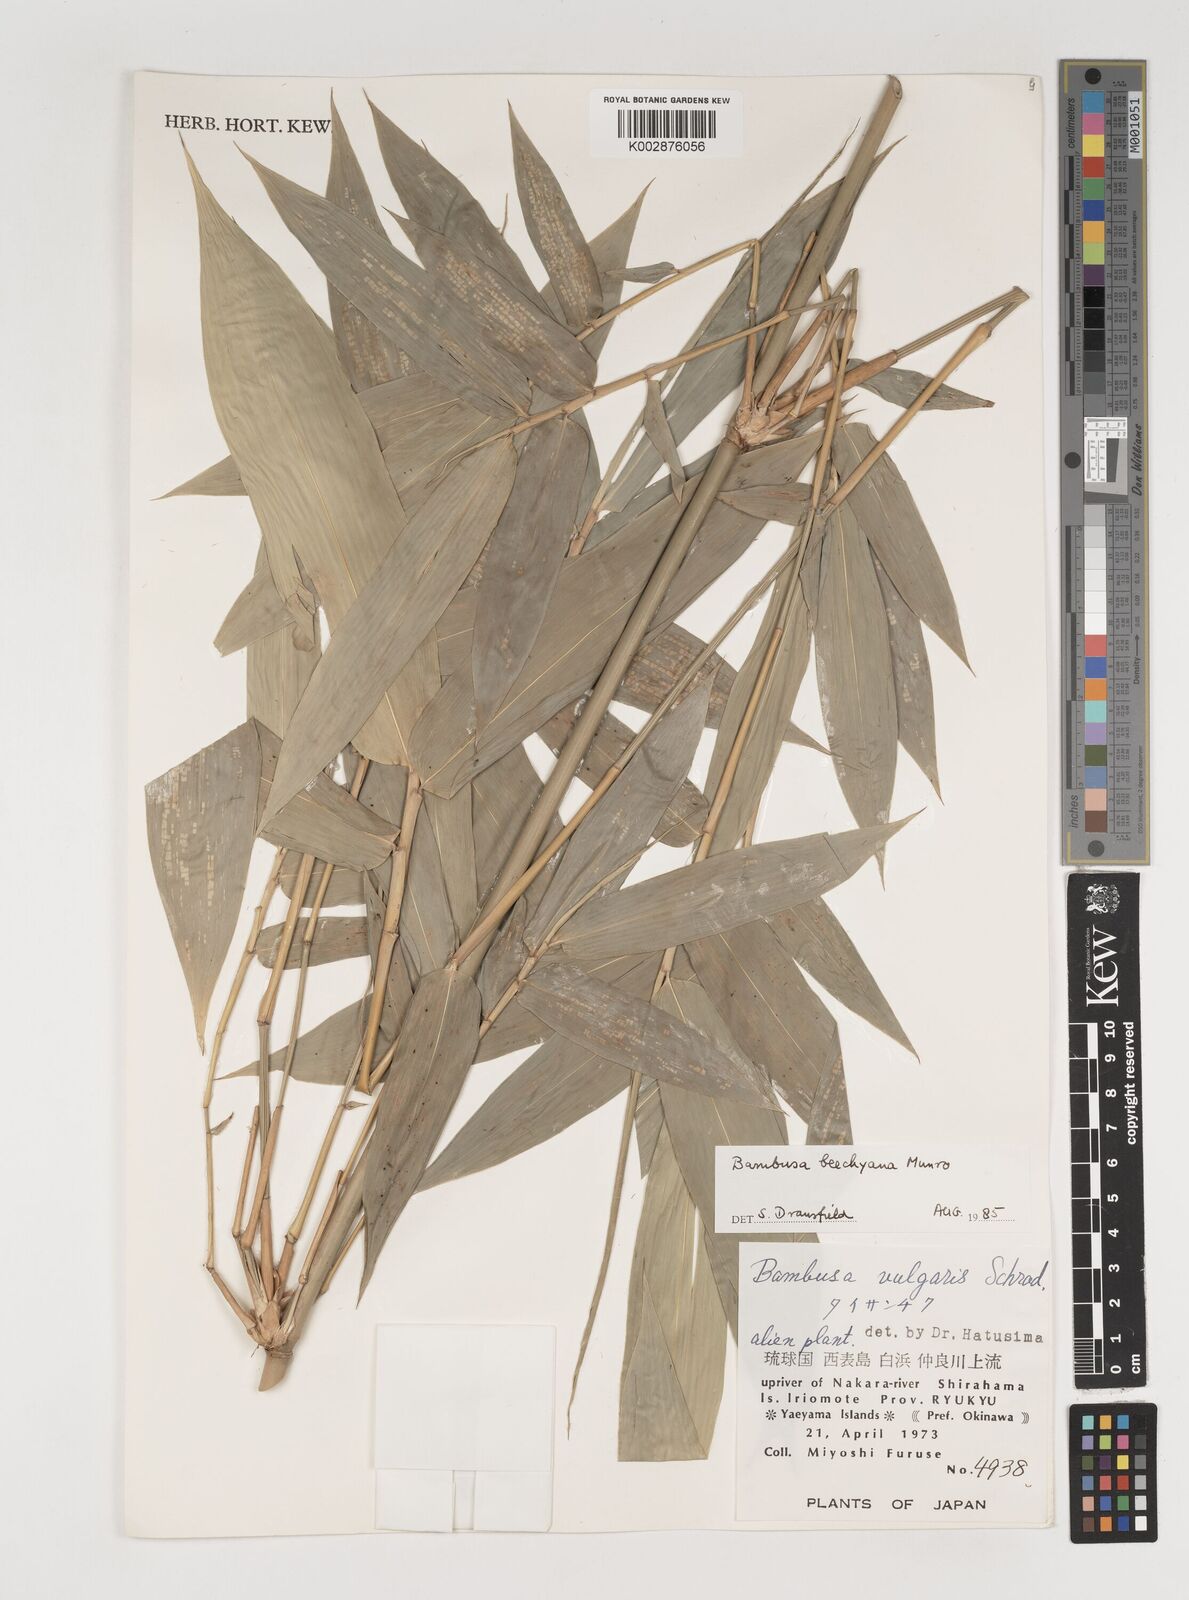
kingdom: Plantae
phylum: Tracheophyta
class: Liliopsida
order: Poales
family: Poaceae
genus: Bambusa
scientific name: Bambusa balcooa
